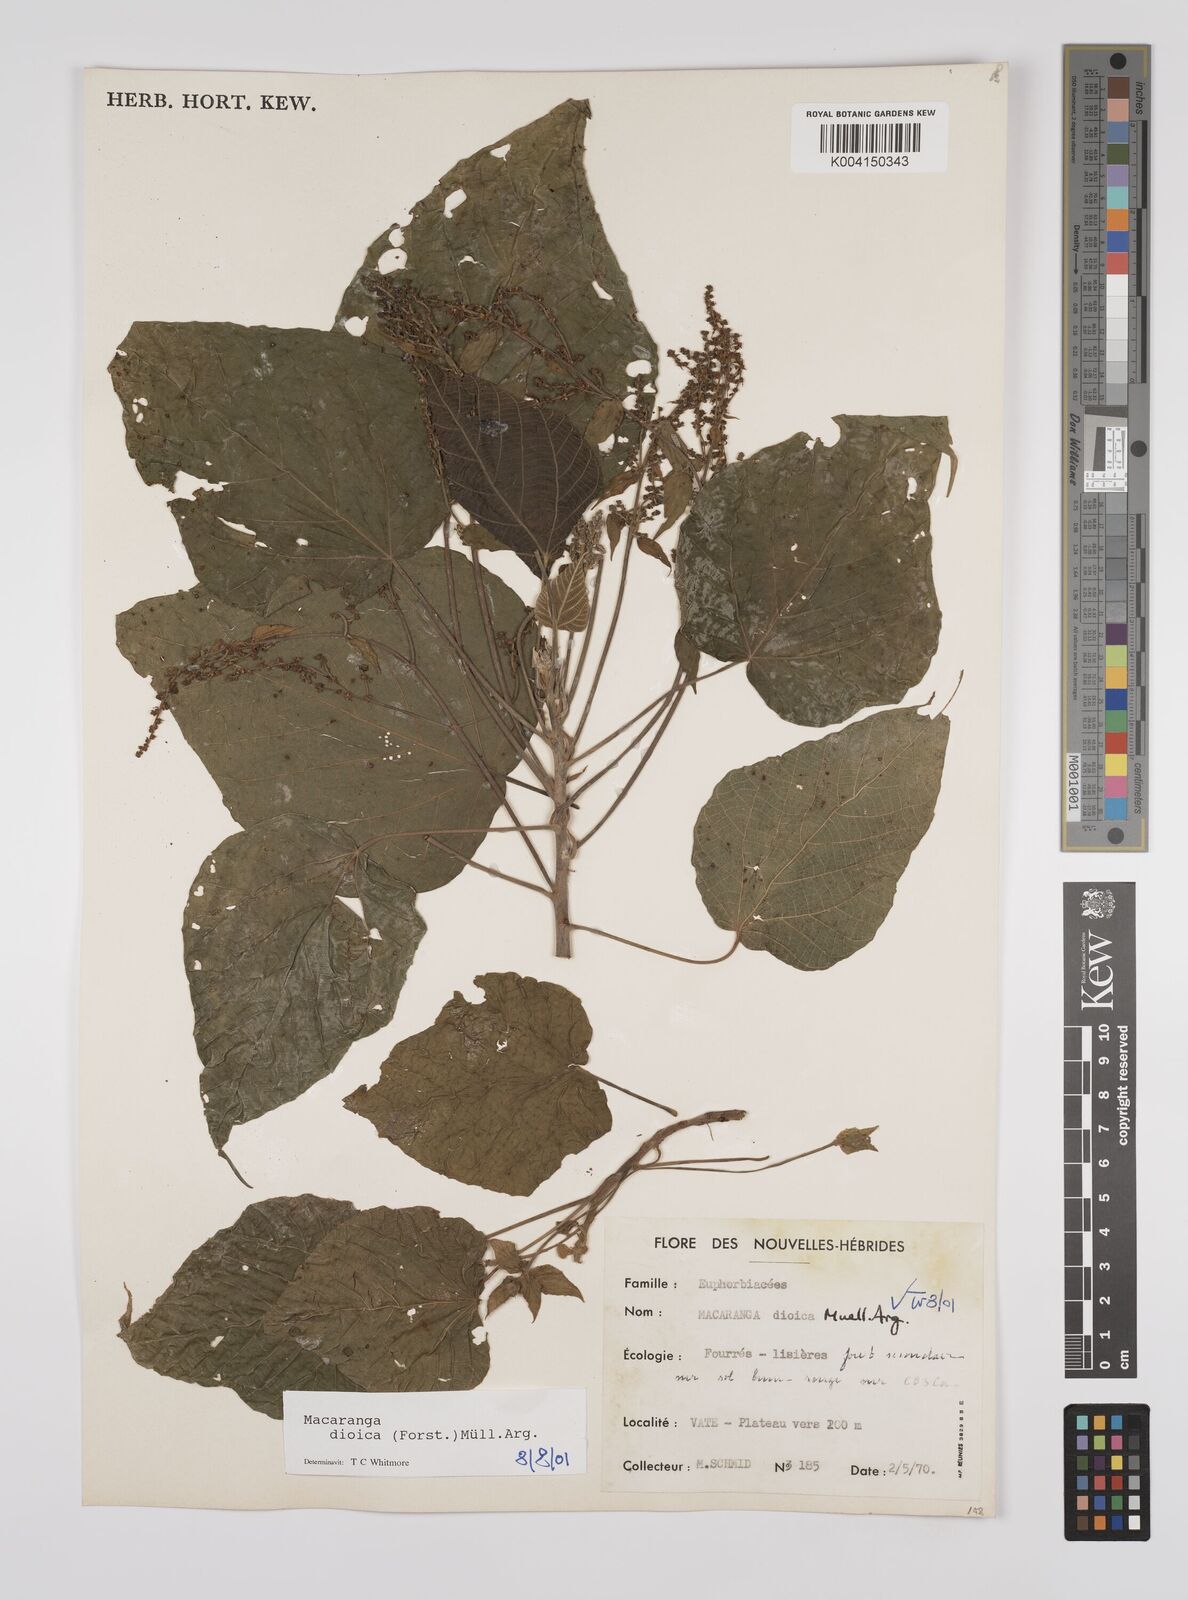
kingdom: Plantae
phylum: Tracheophyta
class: Magnoliopsida
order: Malpighiales
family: Euphorbiaceae
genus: Macaranga
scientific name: Macaranga dioica
